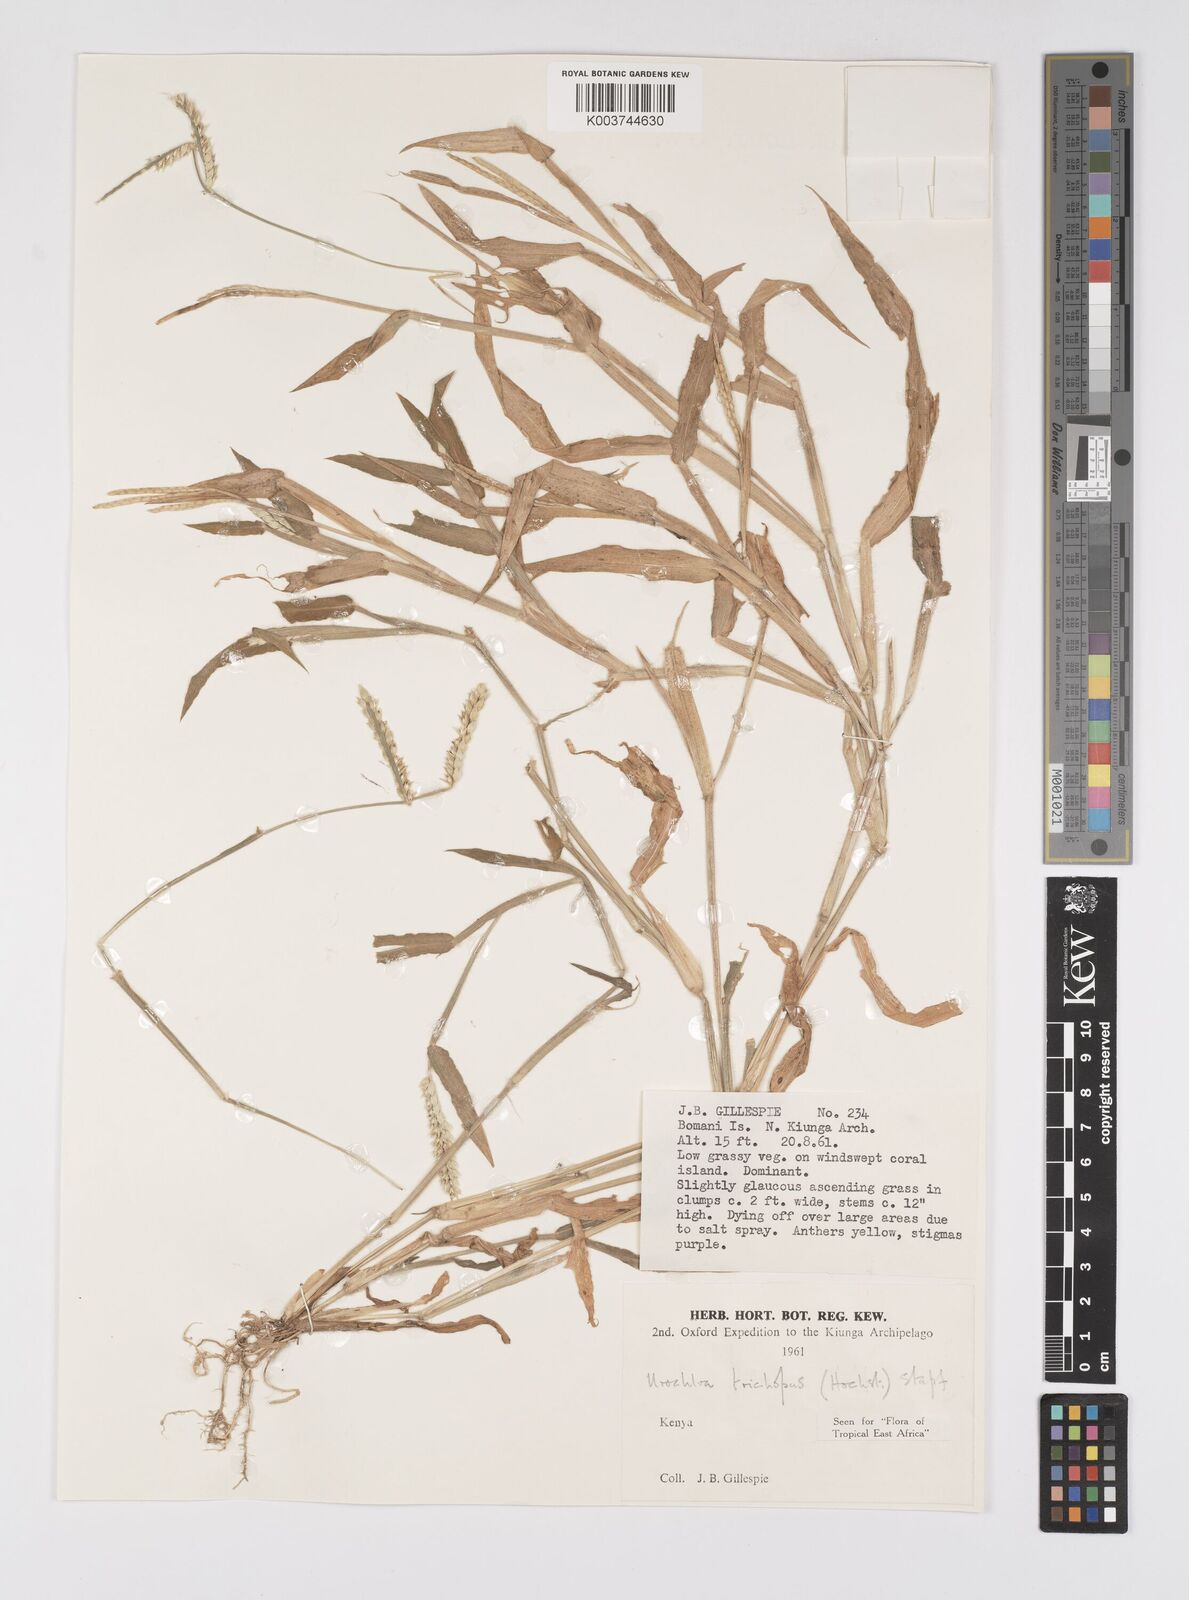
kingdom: Plantae
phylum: Tracheophyta
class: Liliopsida
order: Poales
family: Poaceae
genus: Urochloa
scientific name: Urochloa trichopus
